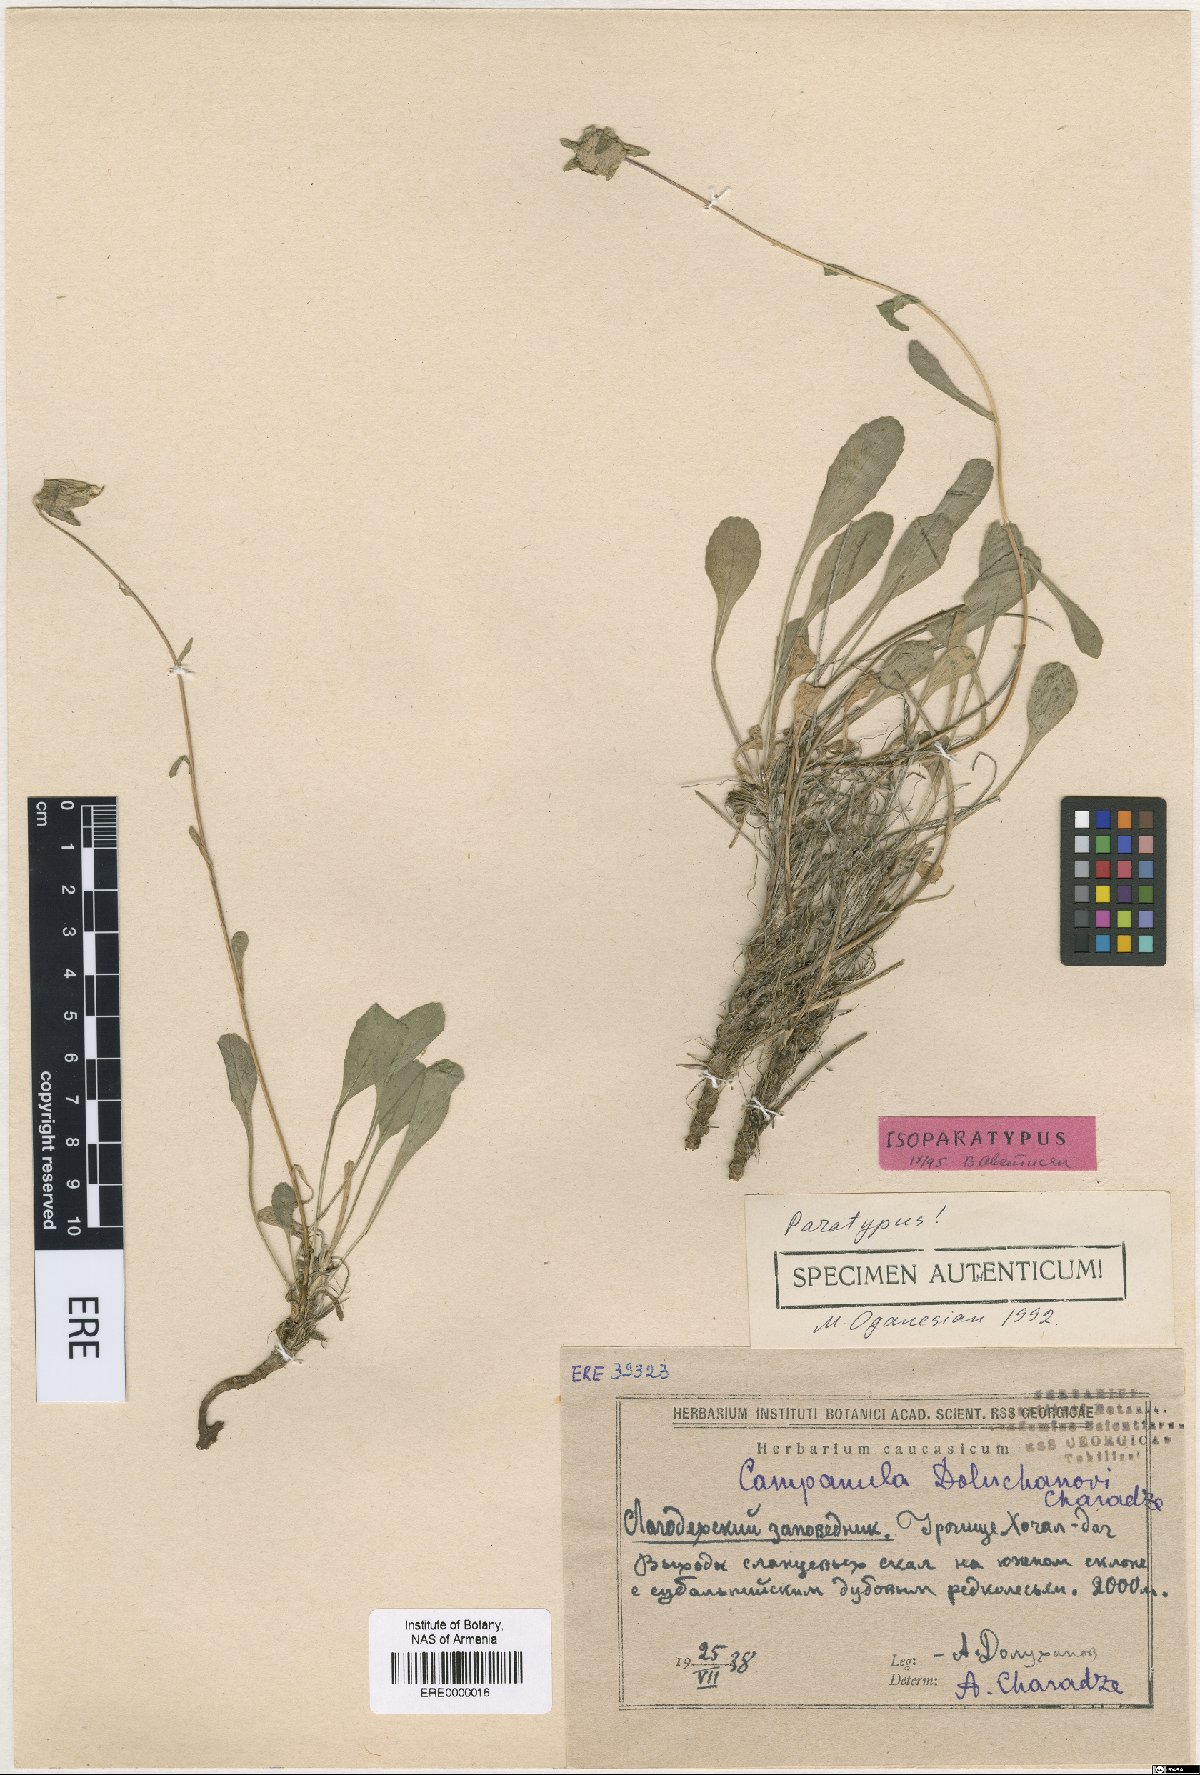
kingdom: Plantae
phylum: Tracheophyta
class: Magnoliopsida
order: Asterales
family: Campanulaceae
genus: Campanula
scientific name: Campanula saxifraga
